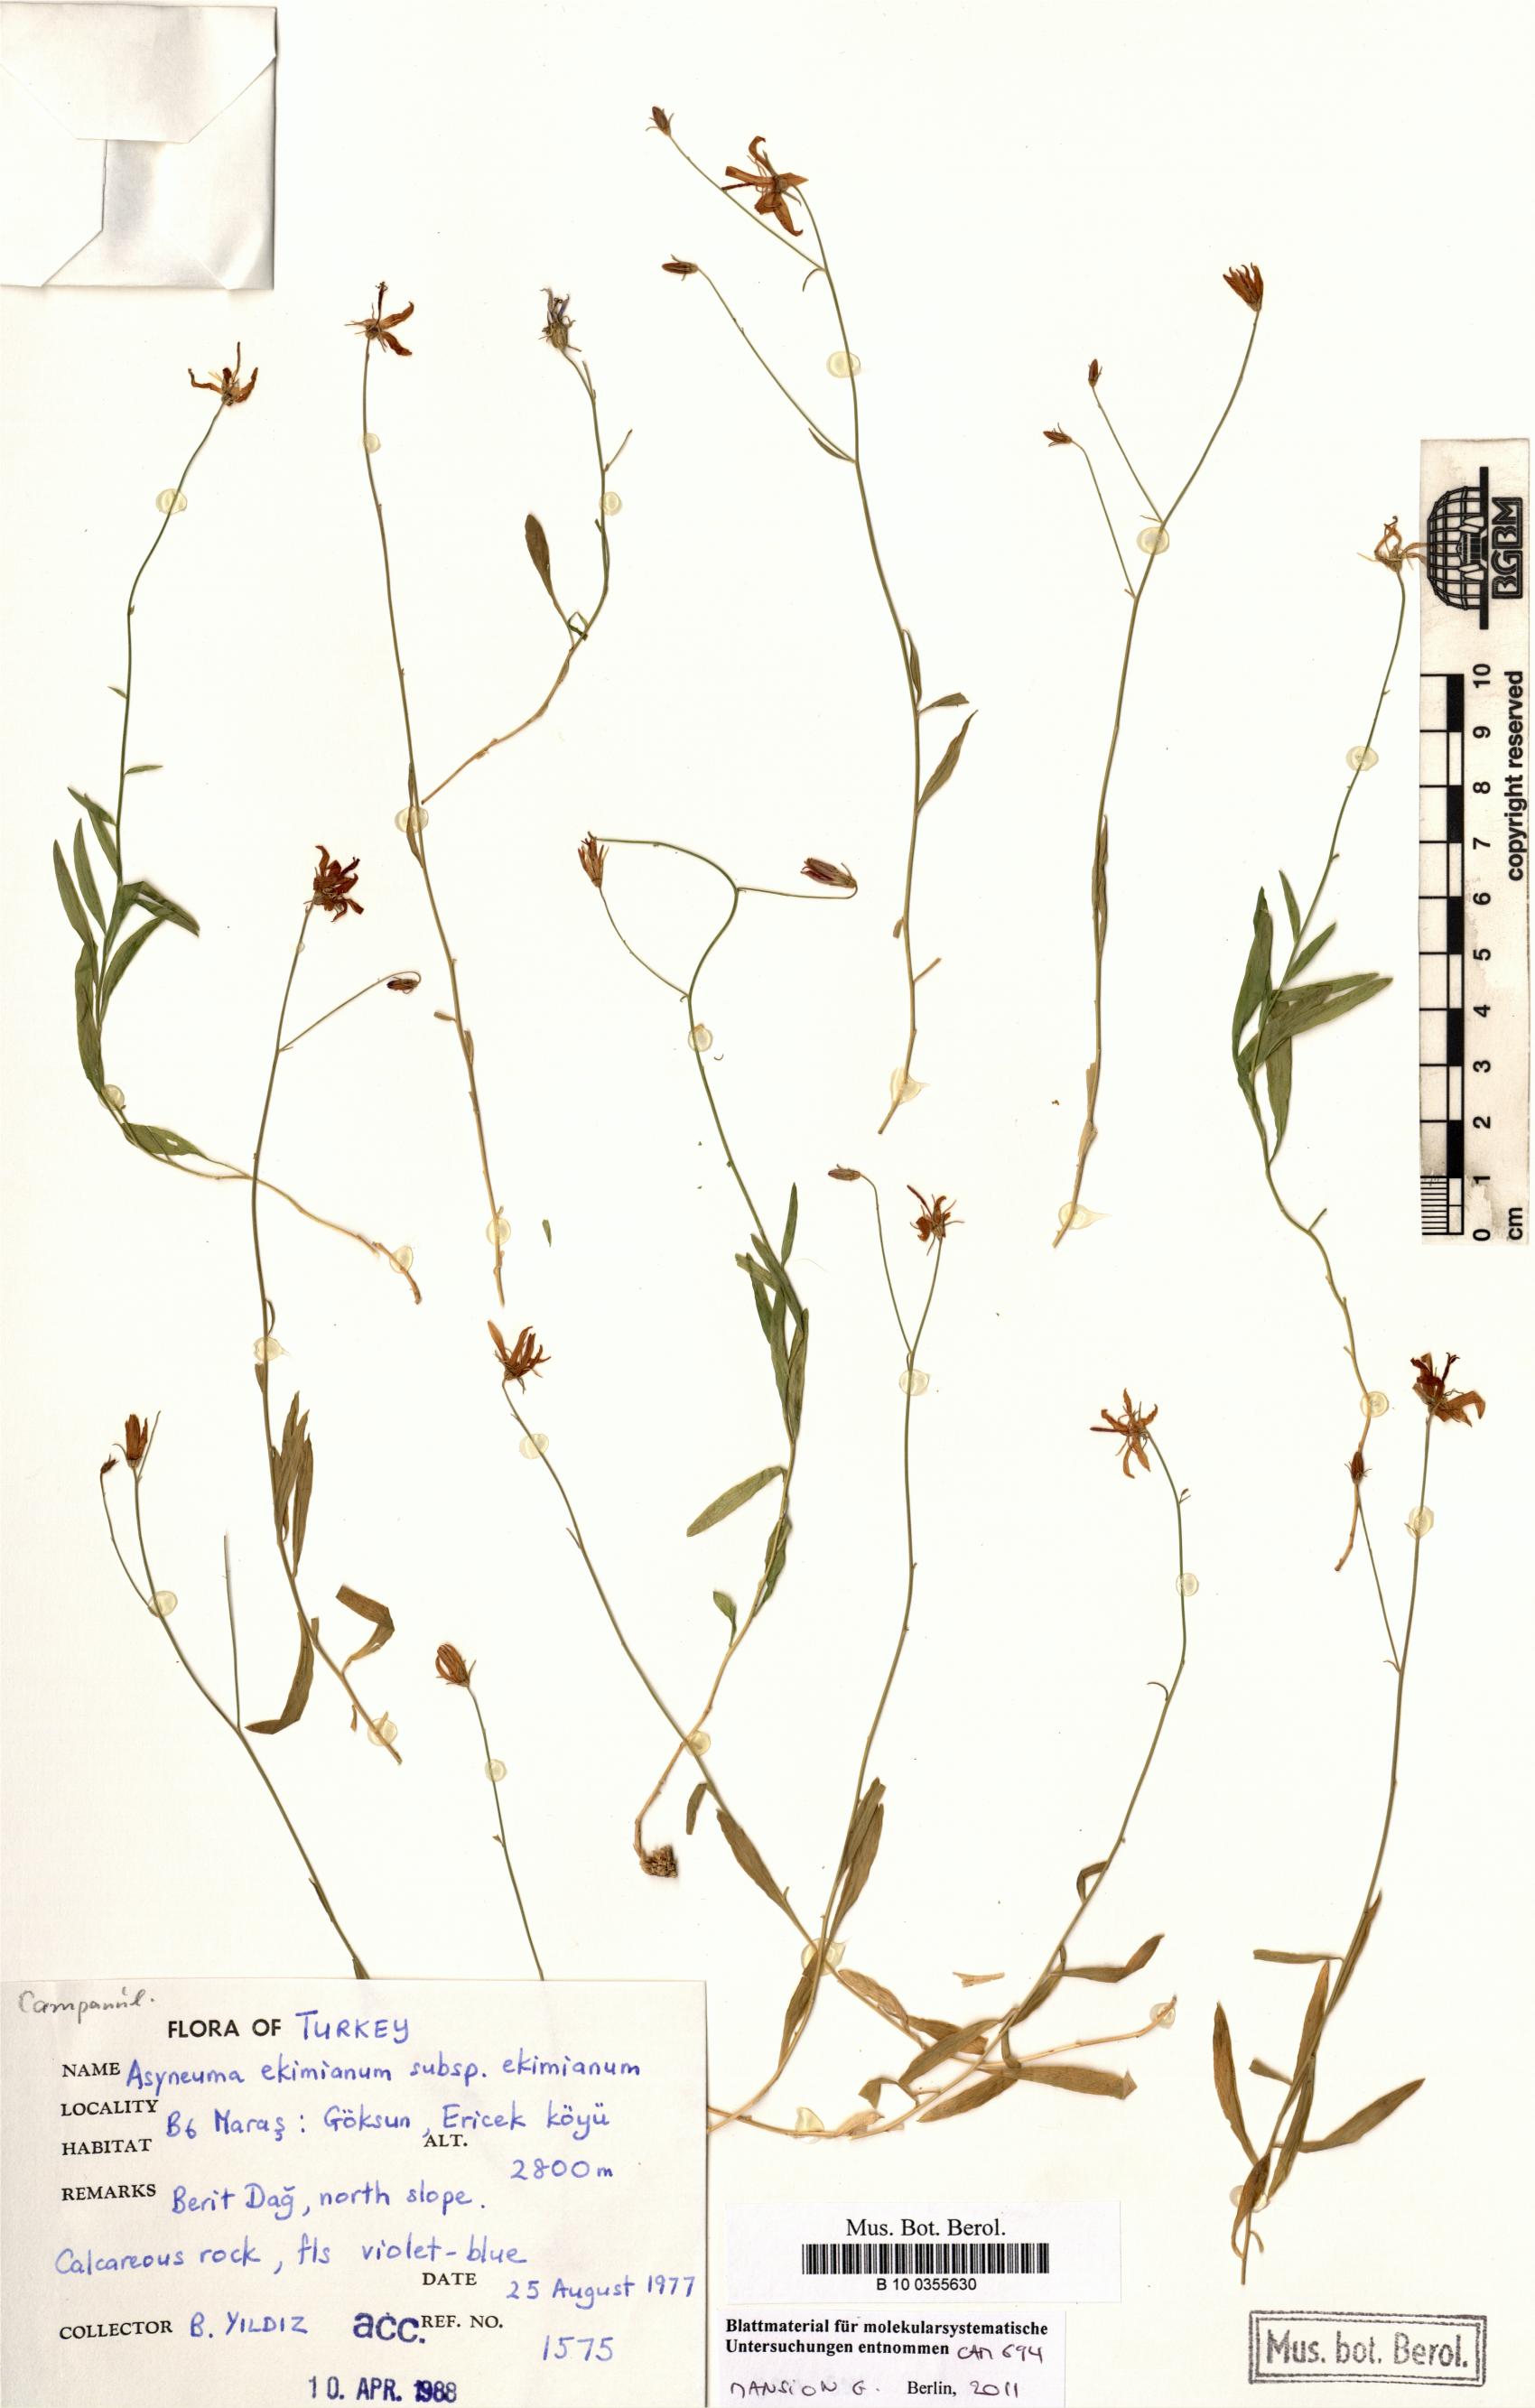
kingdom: Plantae
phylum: Tracheophyta
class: Magnoliopsida
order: Asterales
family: Campanulaceae
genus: Asyneuma
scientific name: Asyneuma ekimianum
